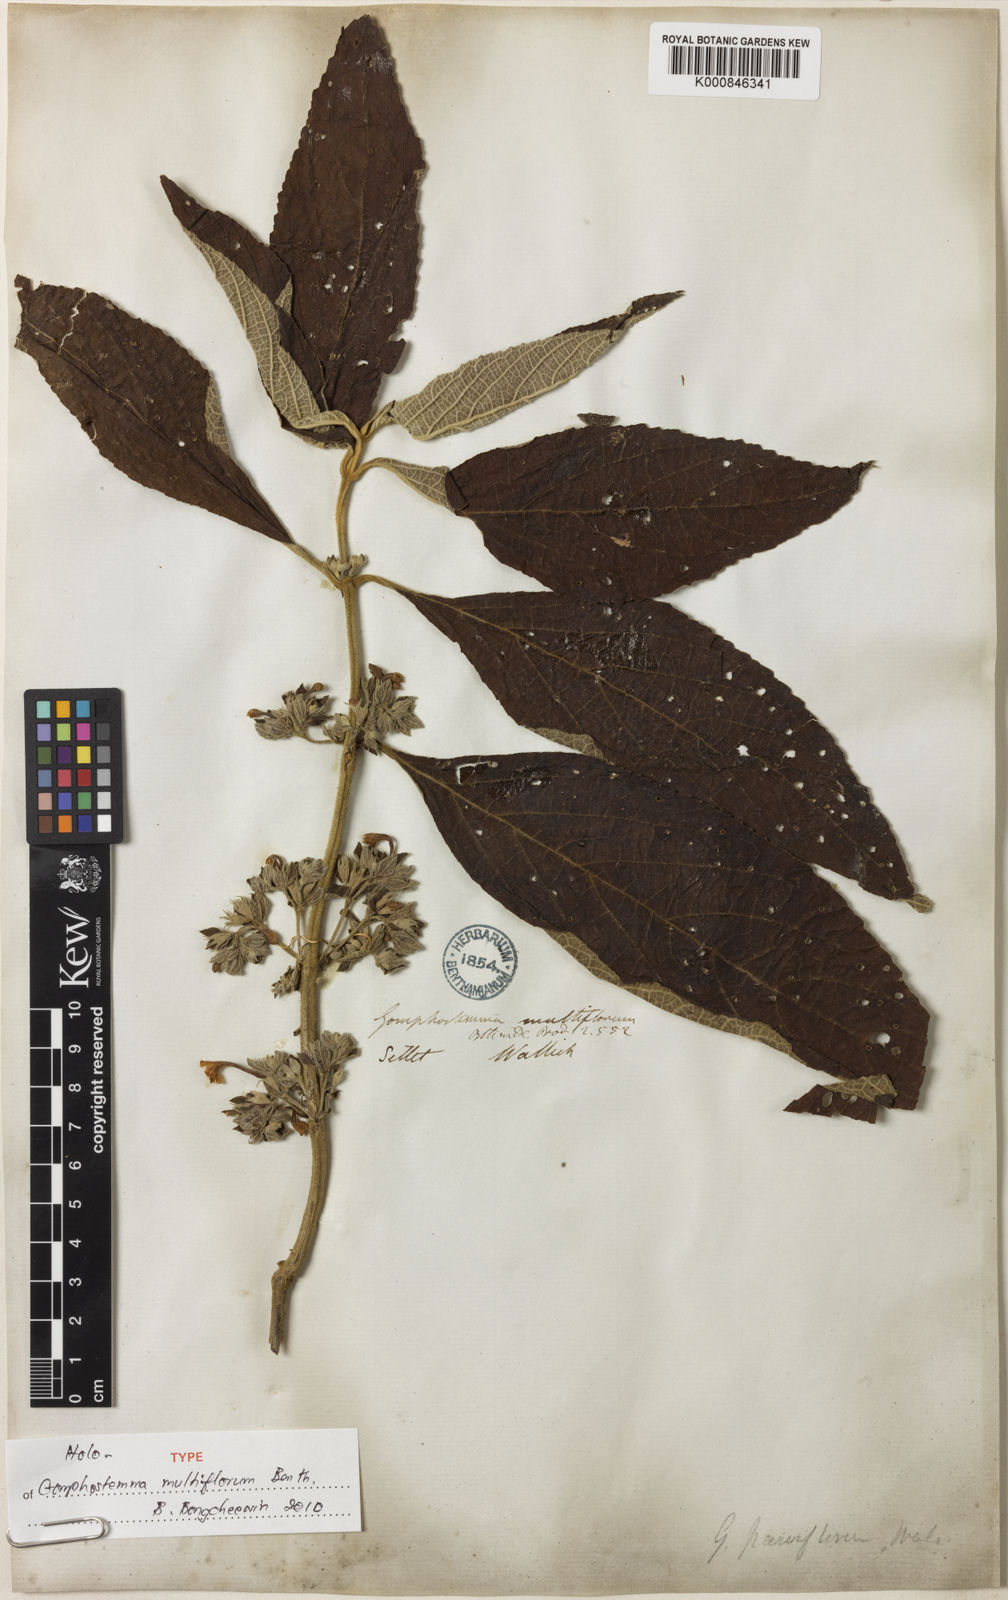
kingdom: Plantae
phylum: Tracheophyta
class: Magnoliopsida
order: Lamiales
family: Lamiaceae
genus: Gomphostemma
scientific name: Gomphostemma parviflorum
